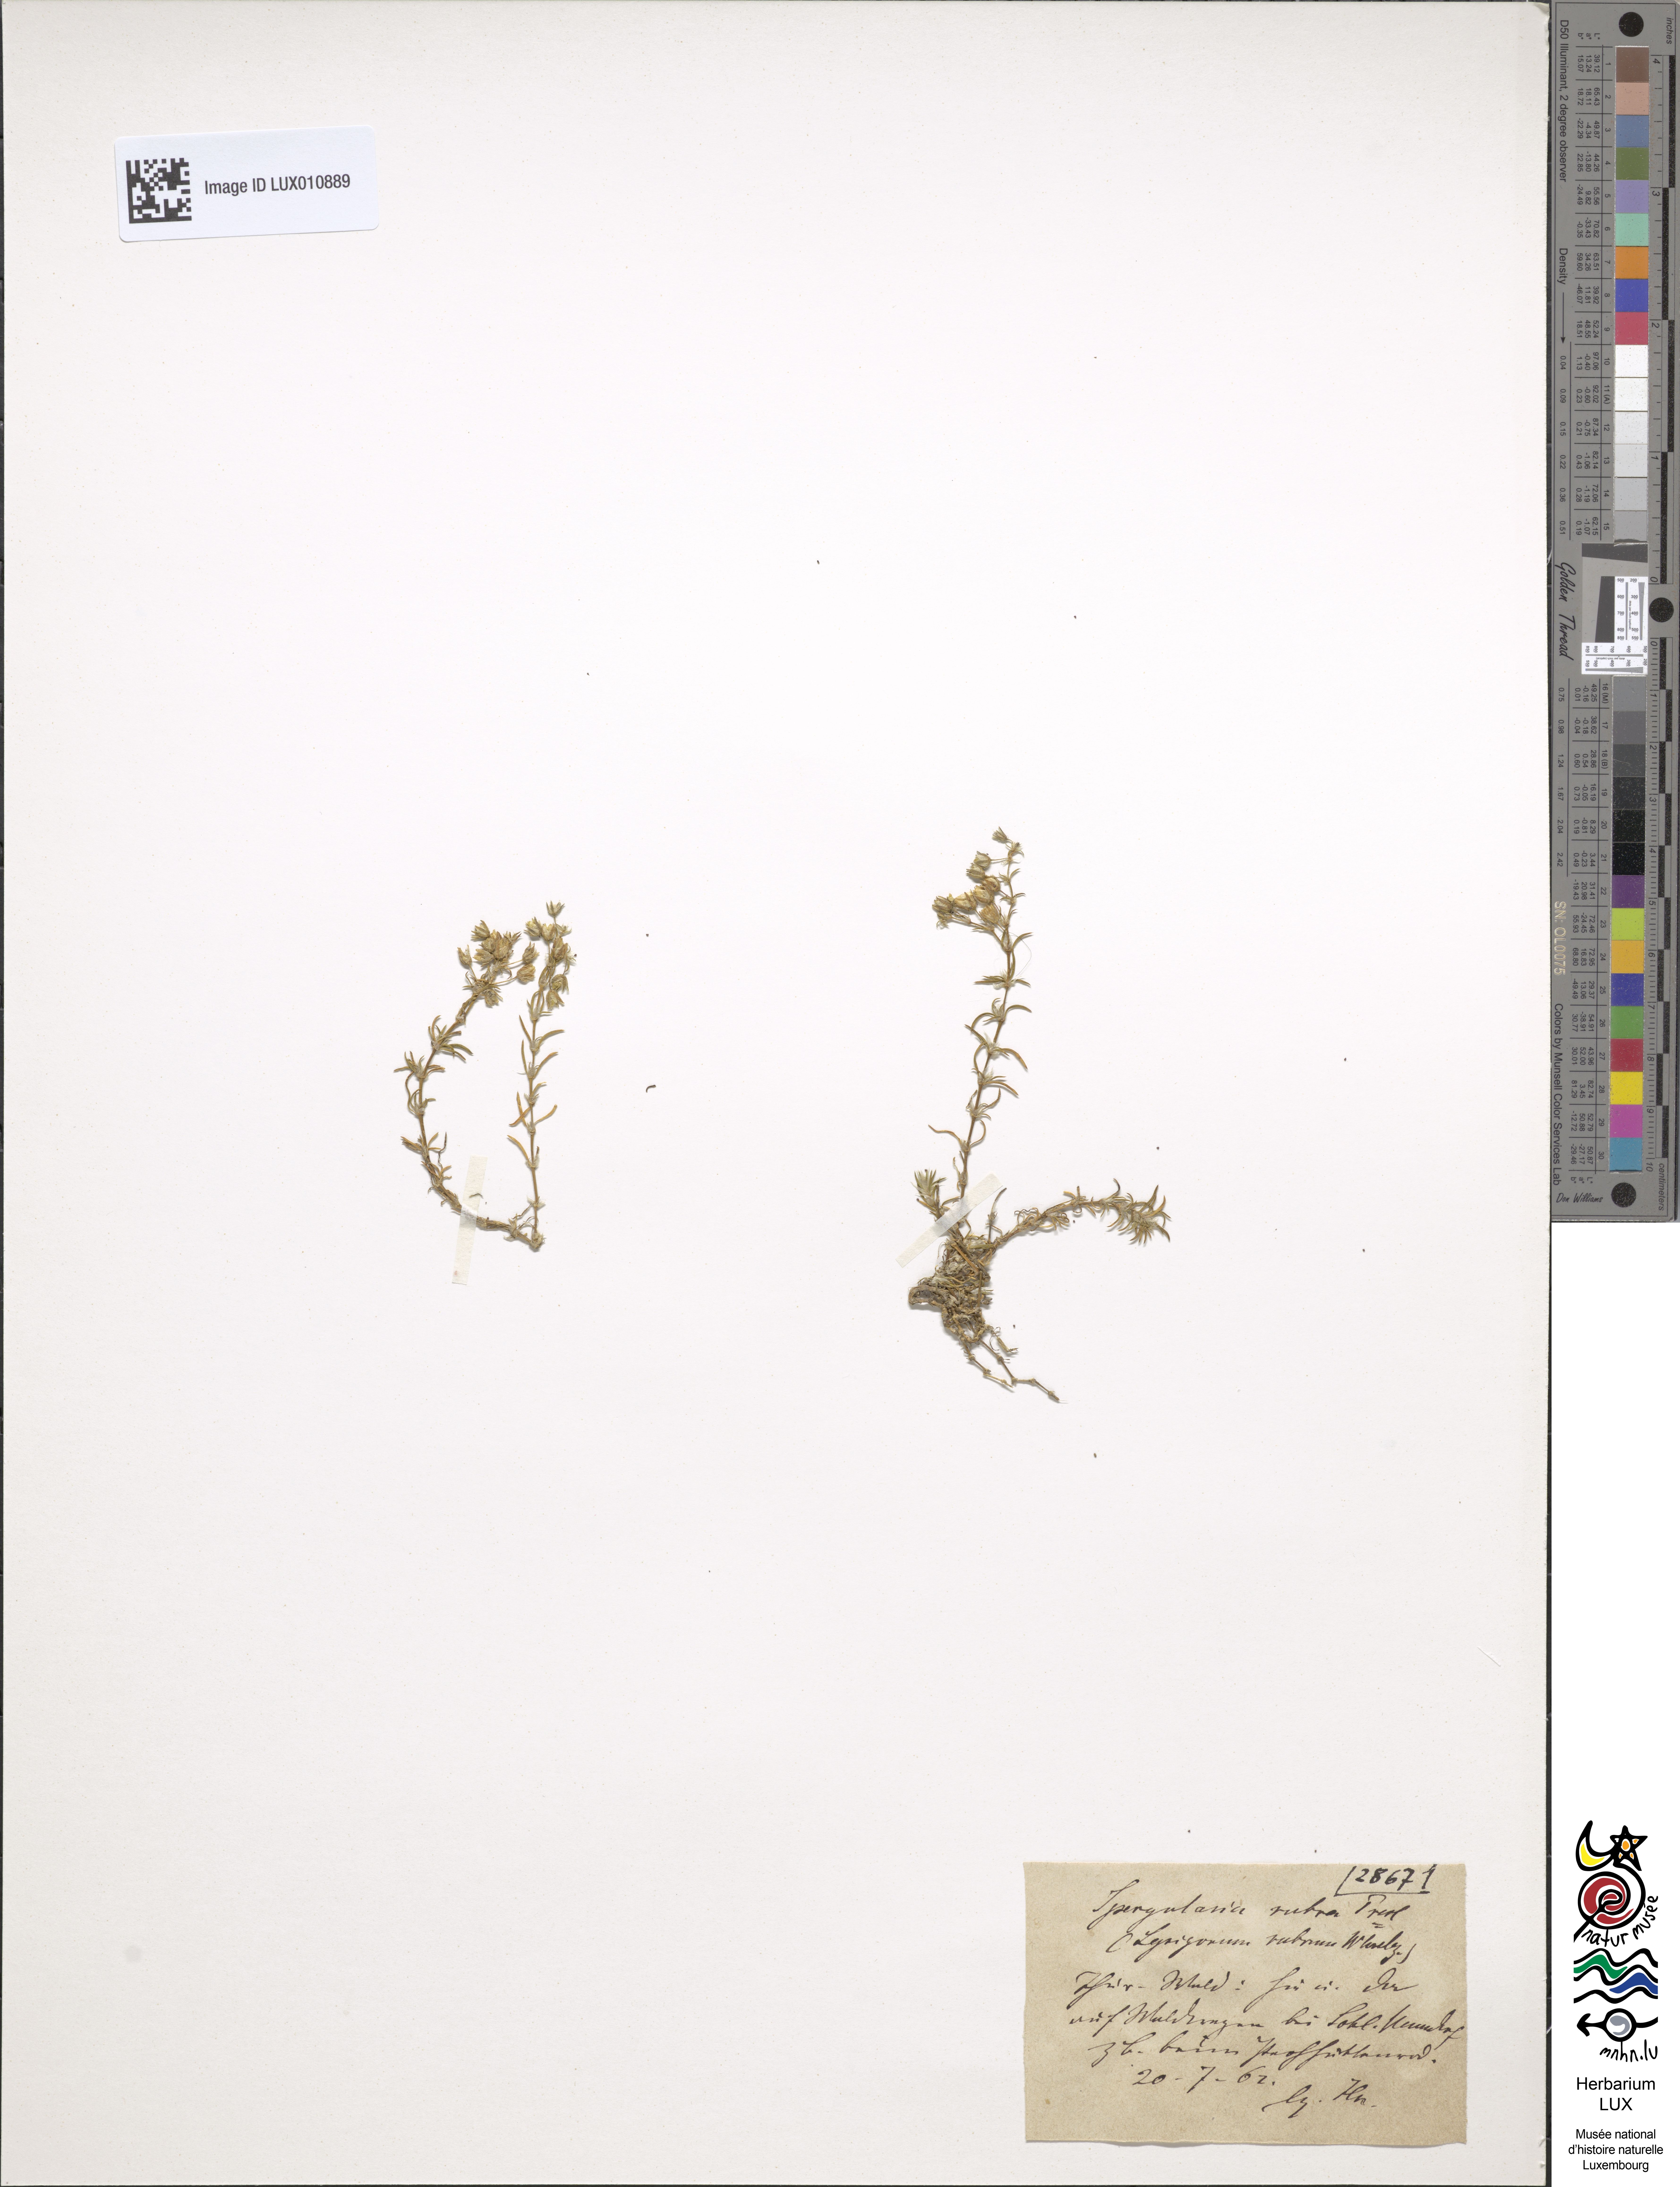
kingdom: Plantae
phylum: Tracheophyta
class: Magnoliopsida
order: Caryophyllales
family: Caryophyllaceae
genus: Spergularia
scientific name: Spergularia rubra
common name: Red sand-spurrey
